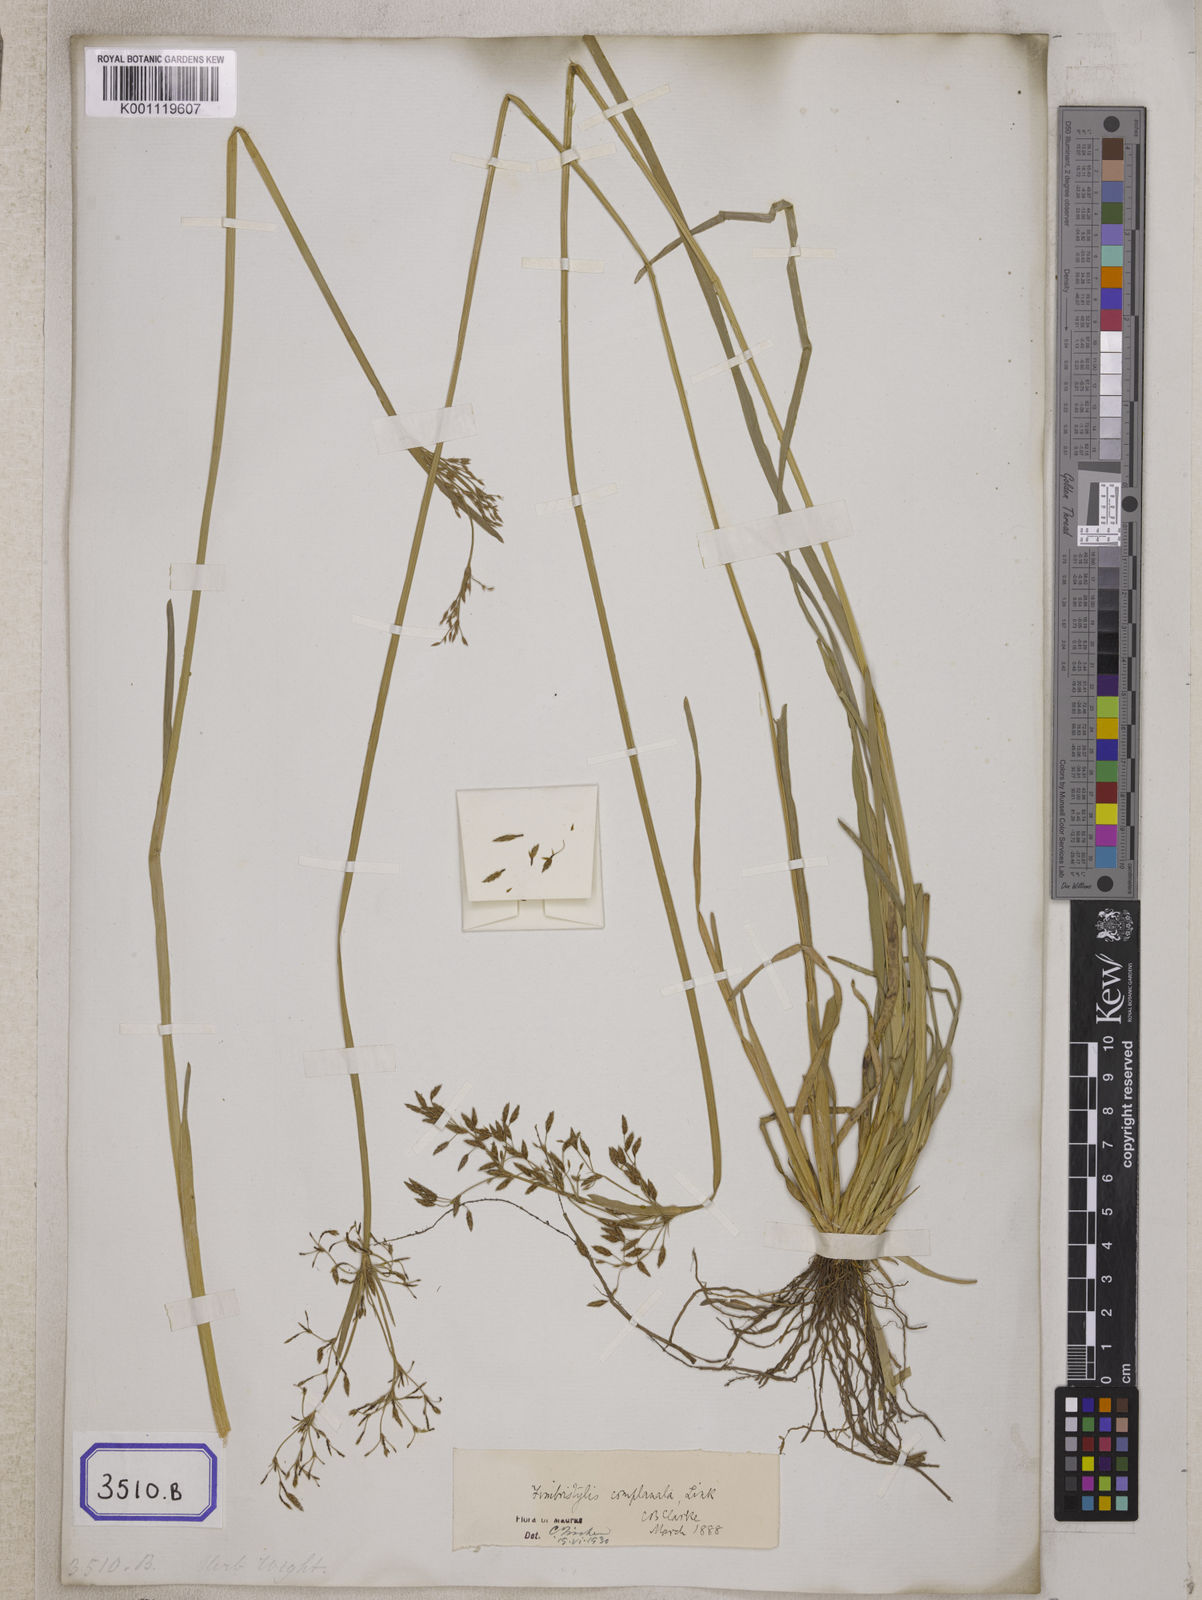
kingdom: Plantae
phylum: Tracheophyta
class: Liliopsida
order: Poales
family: Cyperaceae
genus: Fimbristylis
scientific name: Fimbristylis
